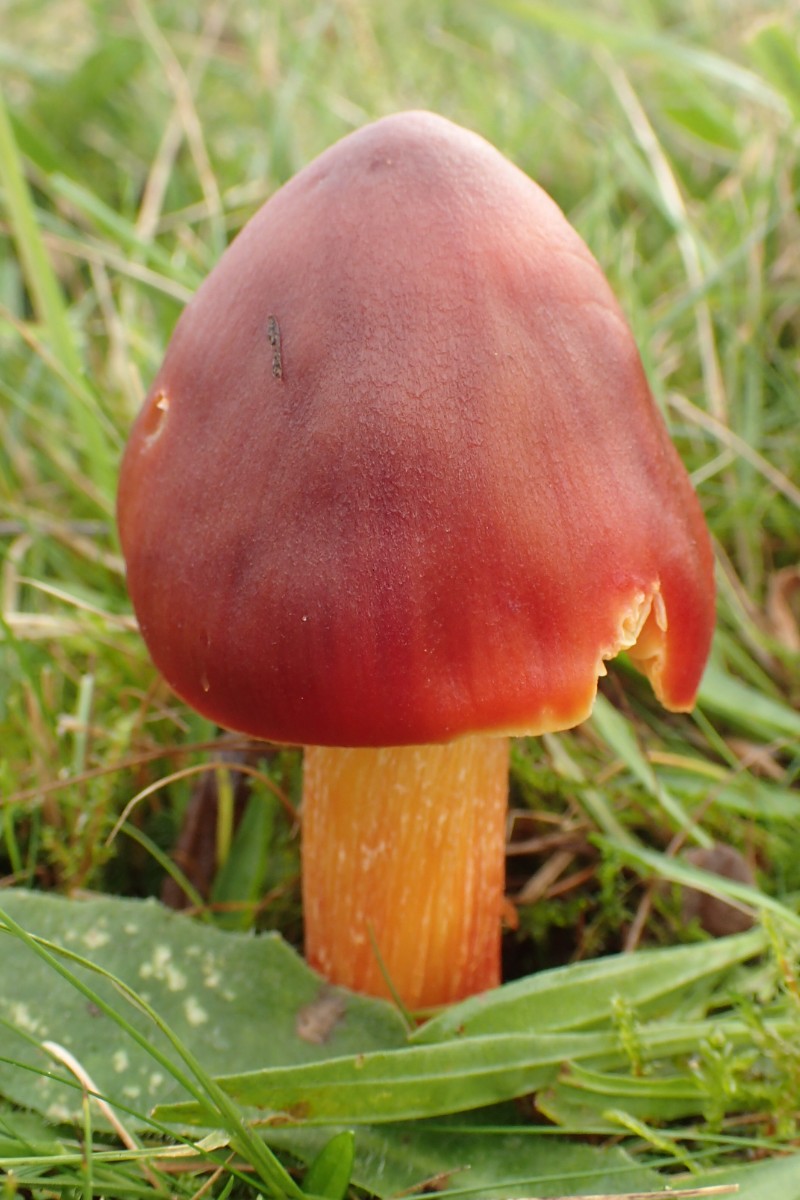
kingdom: Fungi
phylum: Basidiomycota
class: Agaricomycetes
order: Agaricales
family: Hygrophoraceae
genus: Hygrocybe
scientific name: Hygrocybe punicea
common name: skarlagen-vokshat
